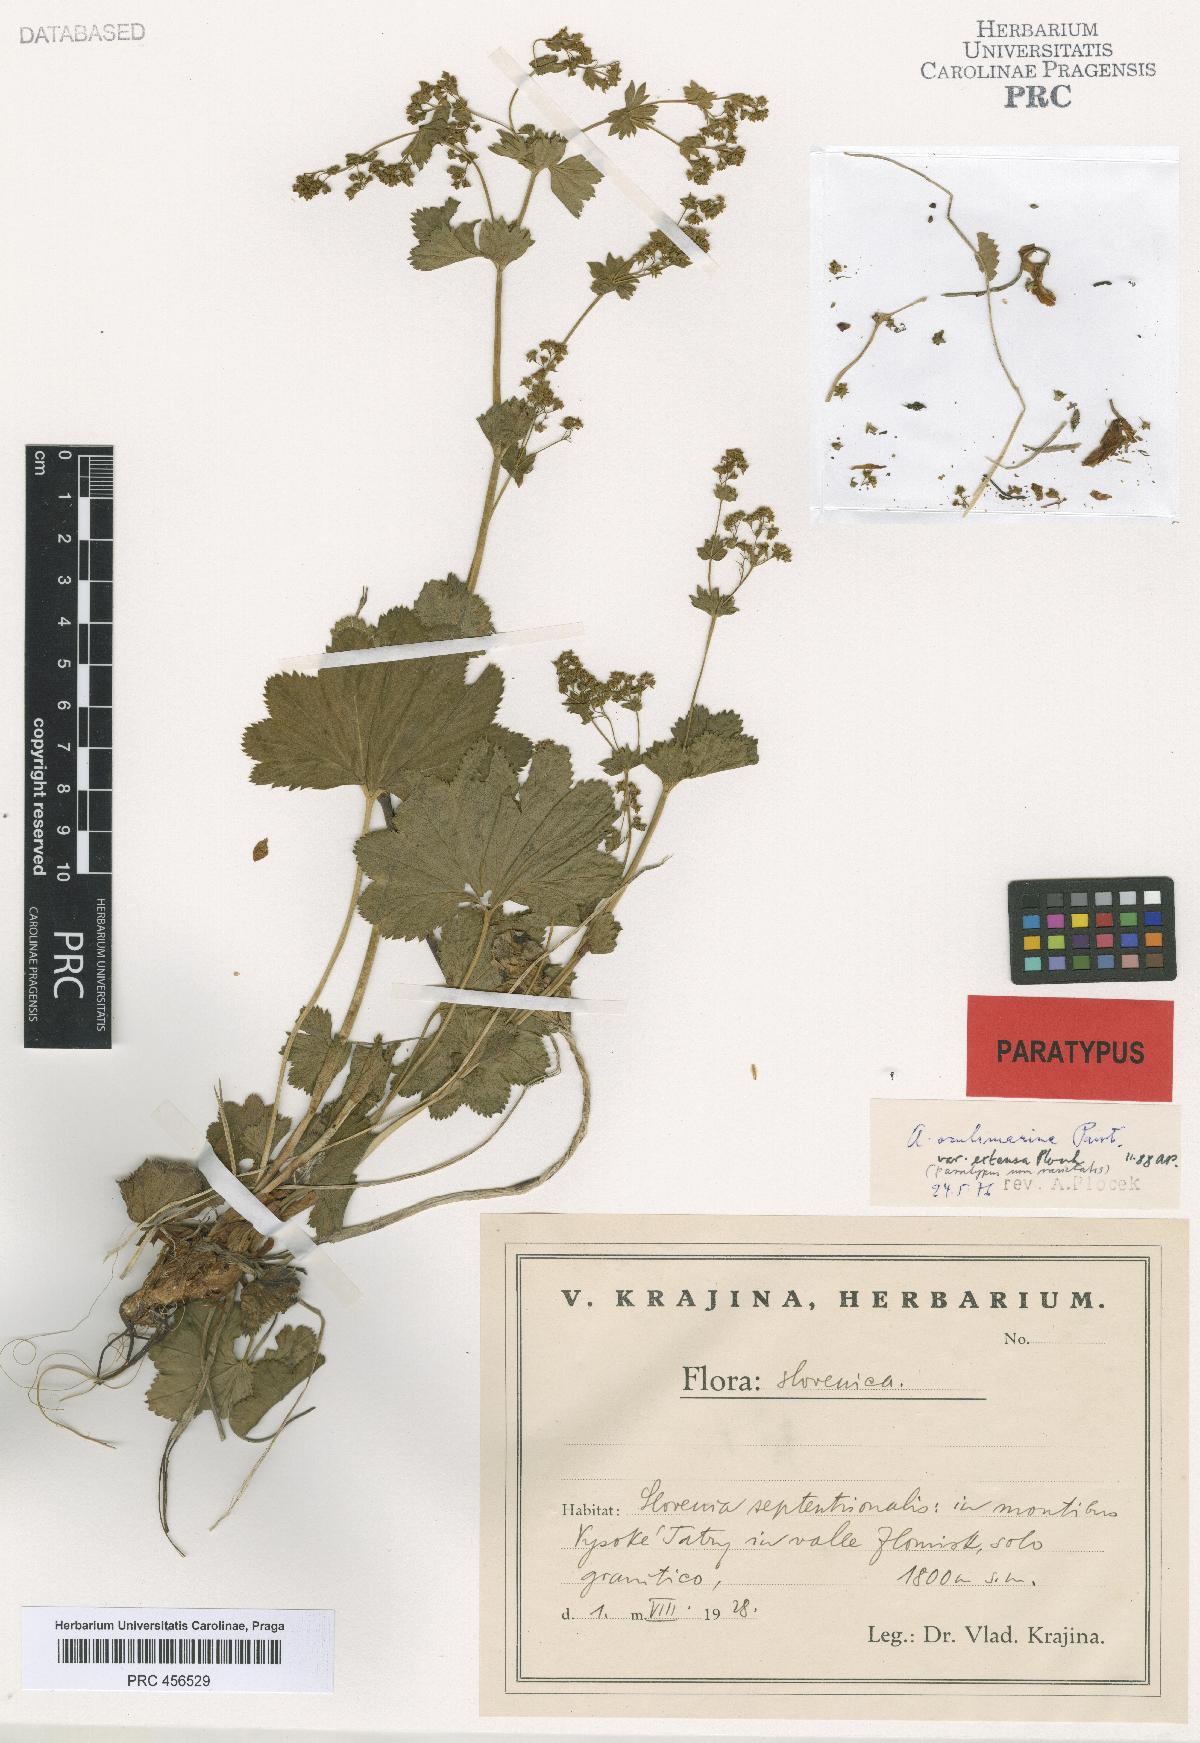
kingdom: Plantae
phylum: Tracheophyta
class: Magnoliopsida
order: Rosales
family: Rosaceae
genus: Alchemilla
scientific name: Alchemilla oculimarina
